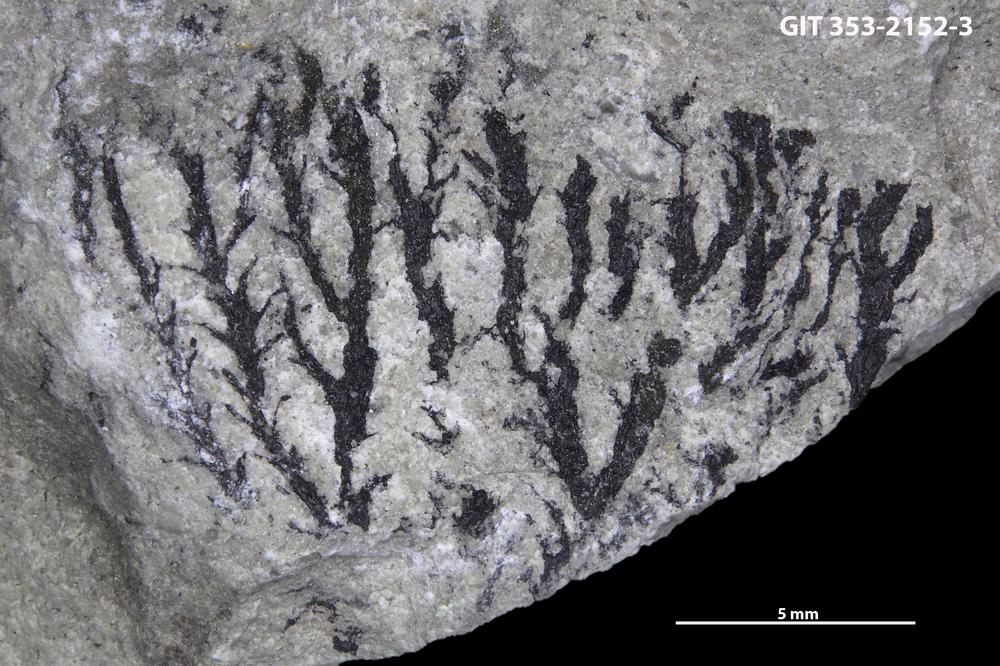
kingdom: Animalia
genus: Acanthograpsus
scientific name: Acanthograpsus
